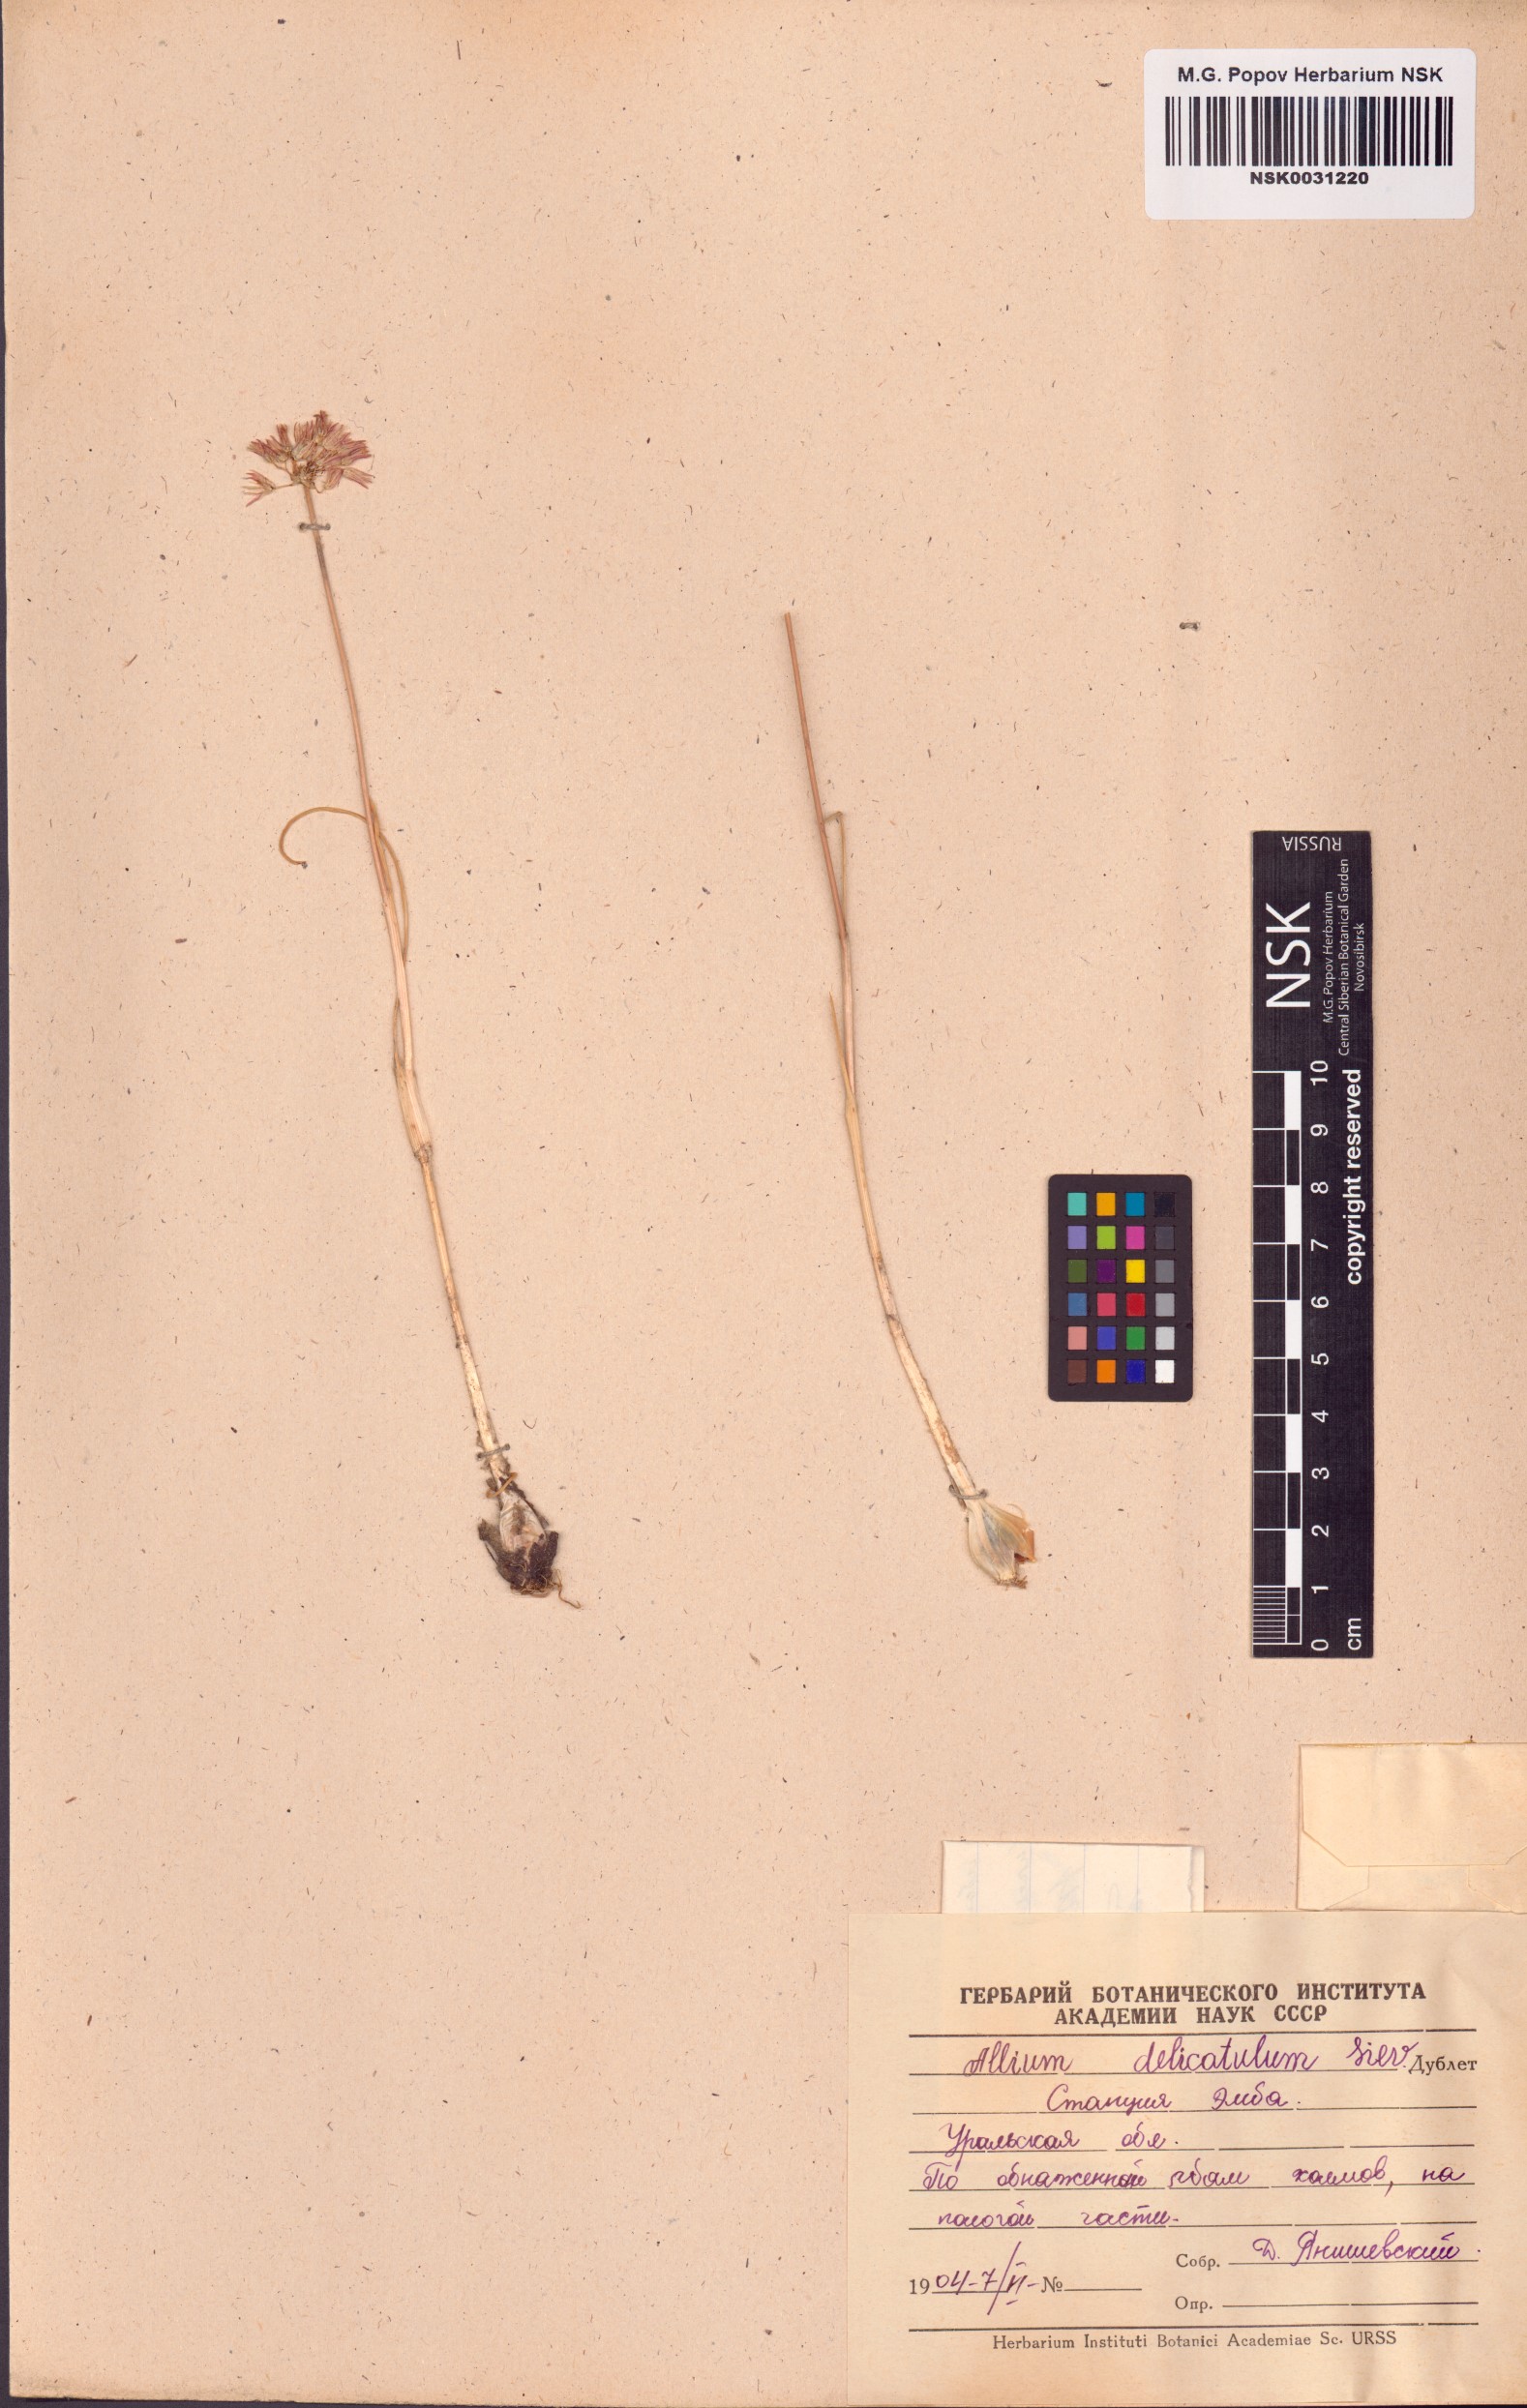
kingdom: Plantae
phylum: Tracheophyta
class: Liliopsida
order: Asparagales
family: Amaryllidaceae
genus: Allium
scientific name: Allium delicatulum
